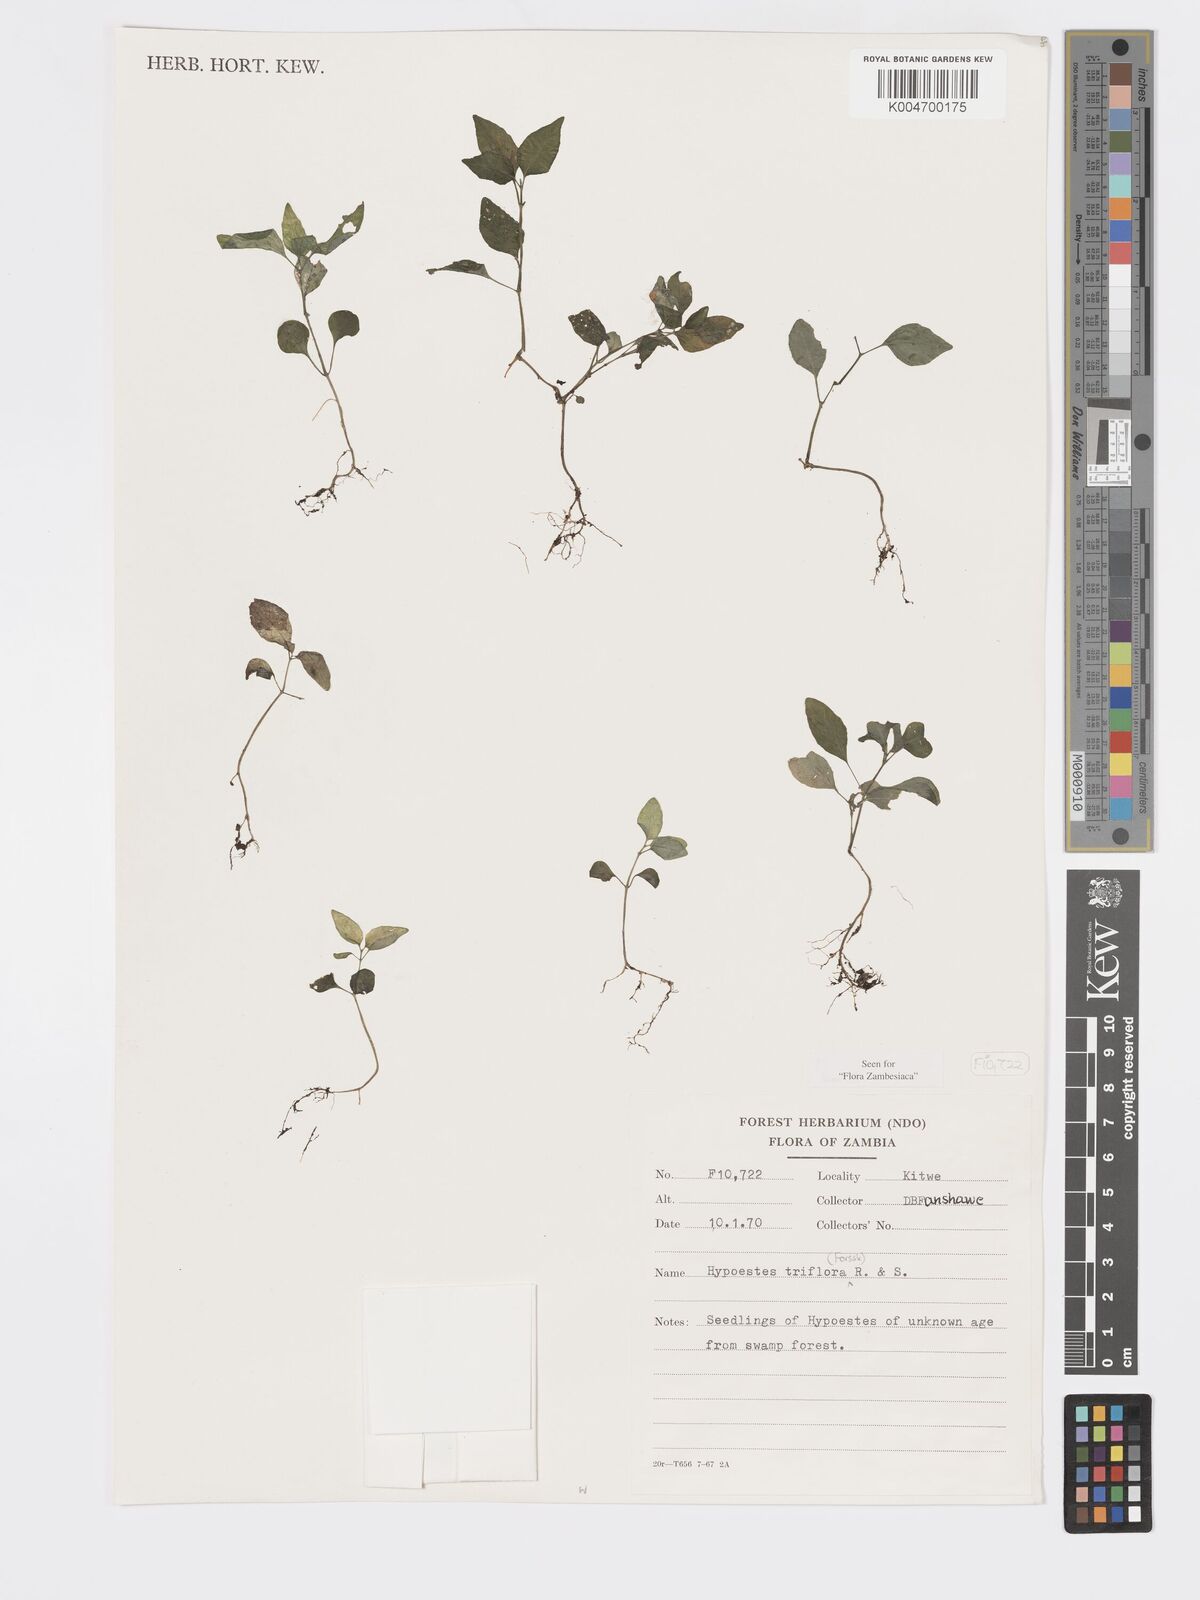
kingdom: Plantae
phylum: Tracheophyta
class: Magnoliopsida
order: Lamiales
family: Acanthaceae
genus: Hypoestes
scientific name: Hypoestes triflora
